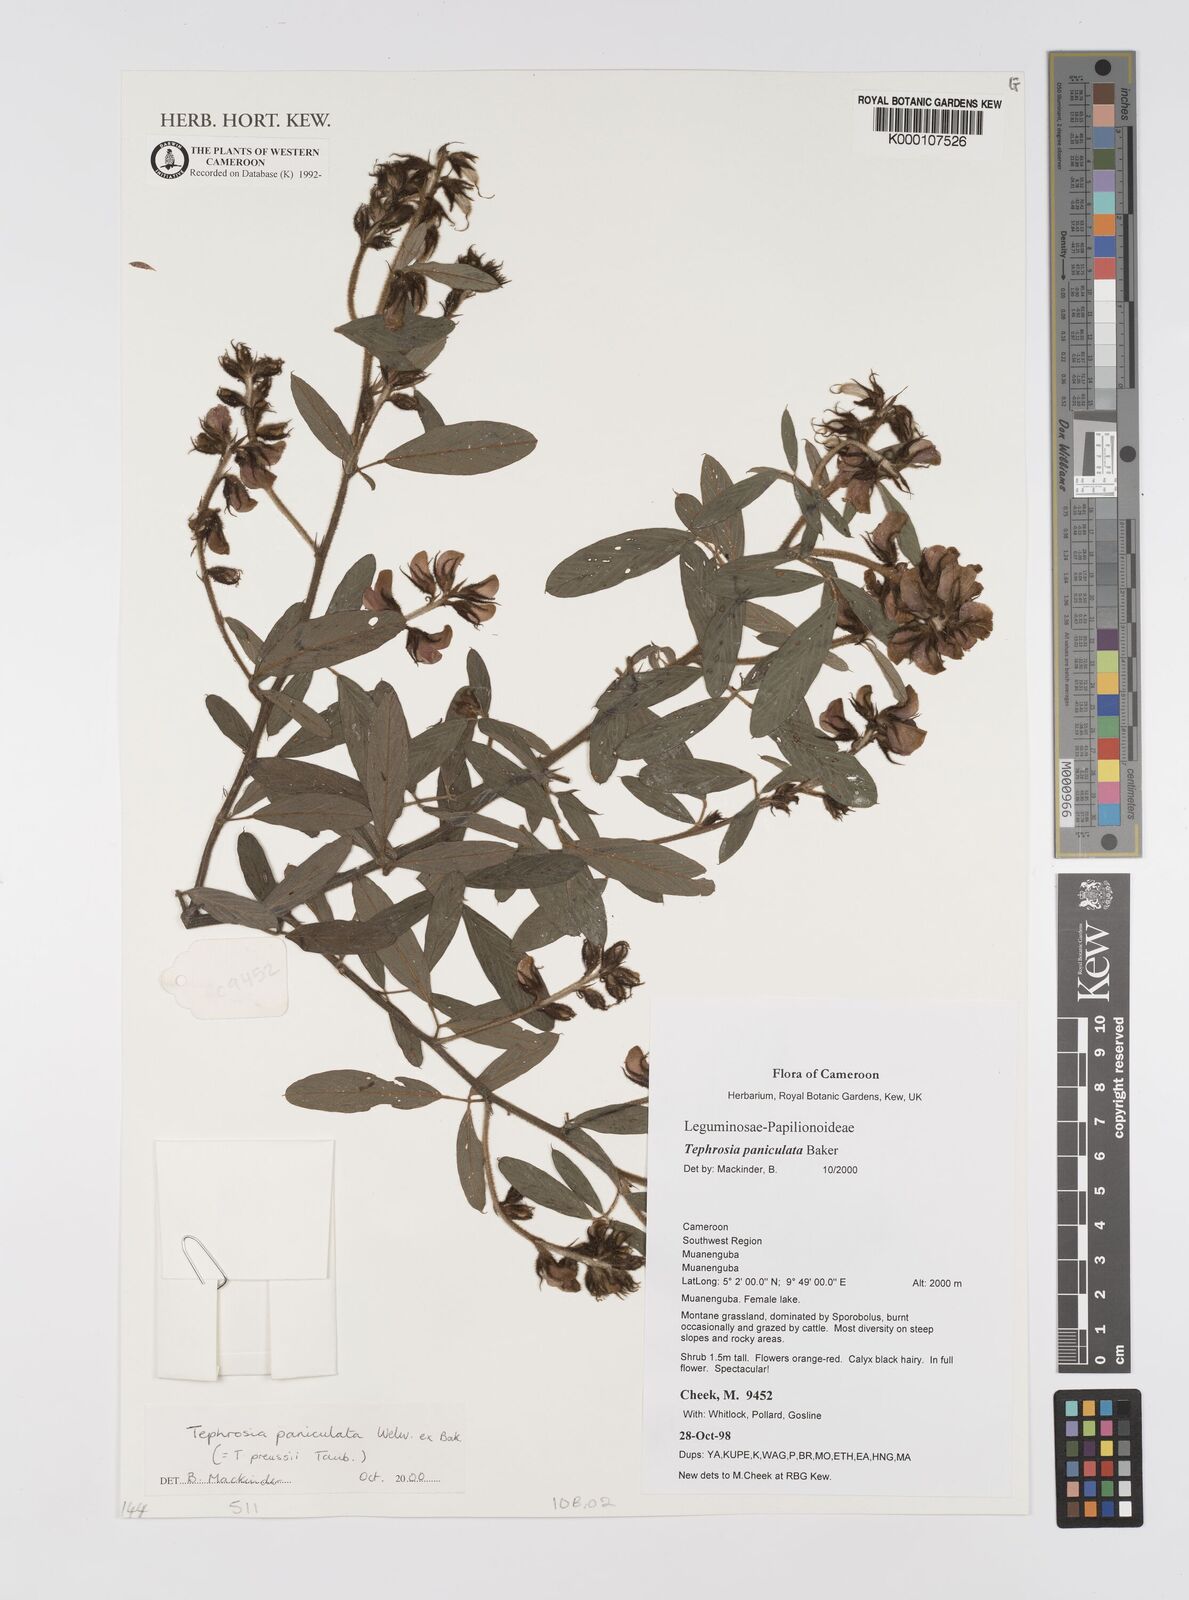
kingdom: Plantae
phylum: Tracheophyta
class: Magnoliopsida
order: Fabales
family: Fabaceae
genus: Tephrosia
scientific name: Tephrosia paniculata
